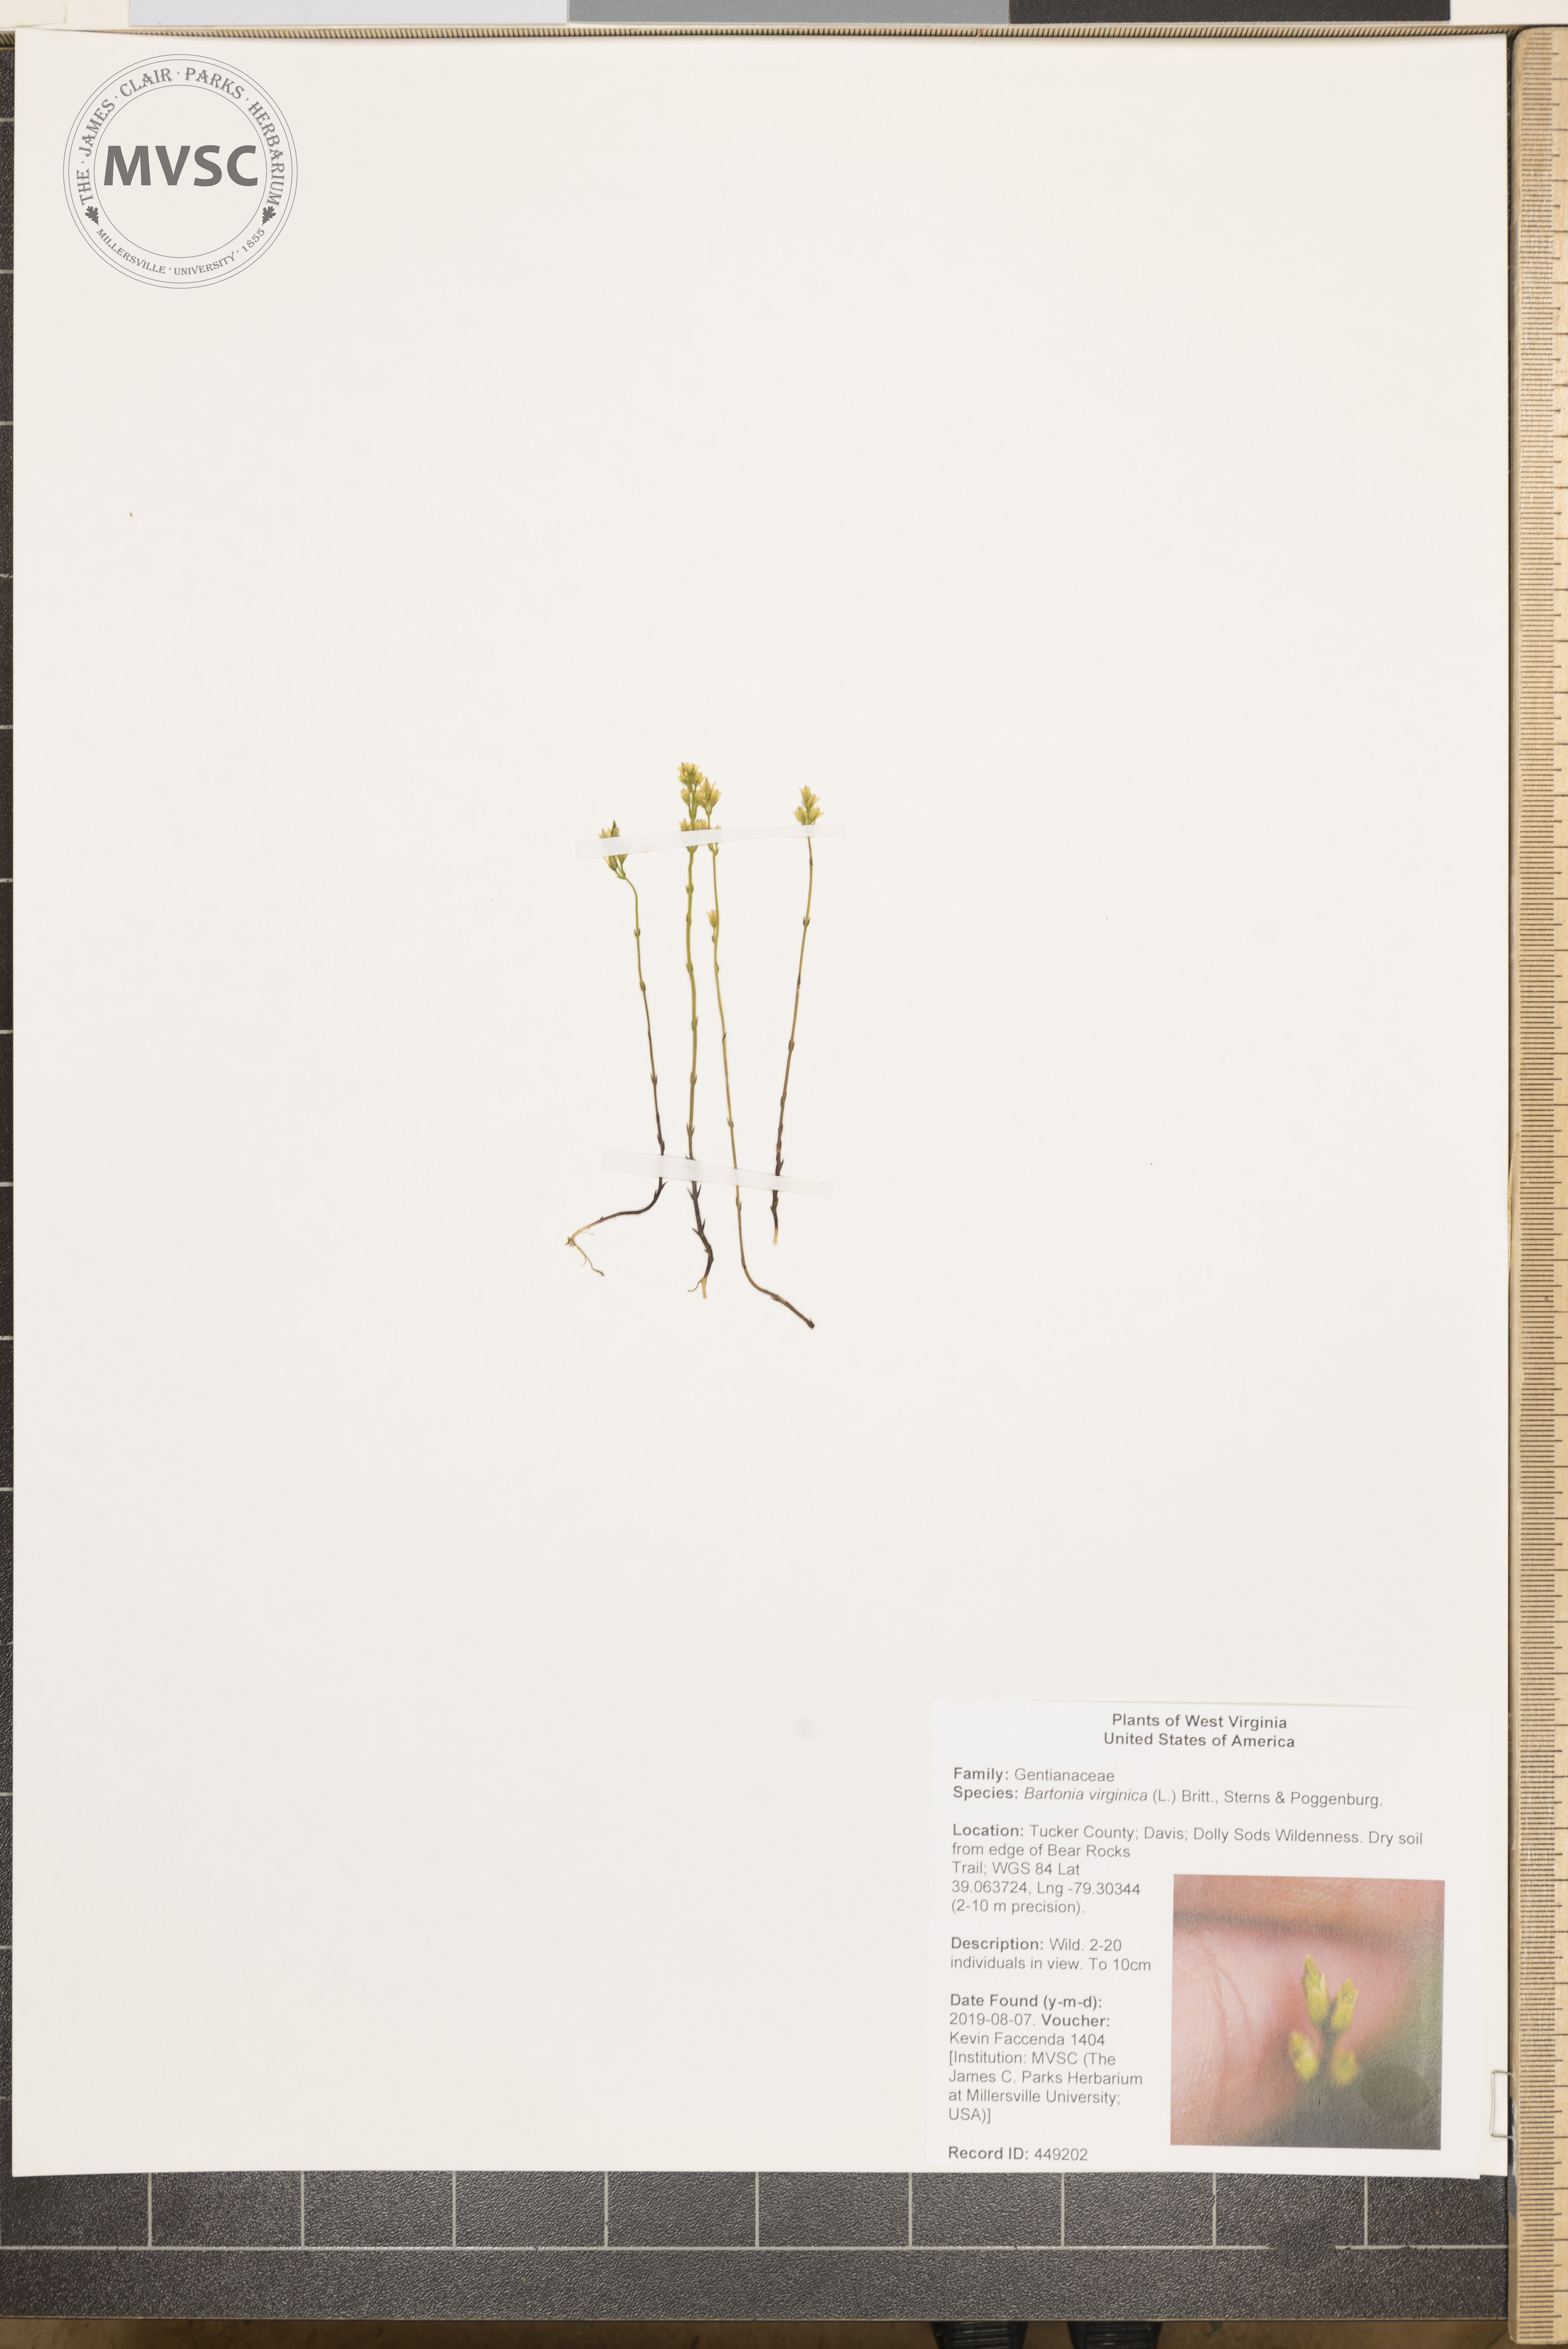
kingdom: Plantae
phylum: Tracheophyta
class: Magnoliopsida
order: Gentianales
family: Gentianaceae
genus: Bartonia
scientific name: Bartonia virginica
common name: Yellow bartonia
